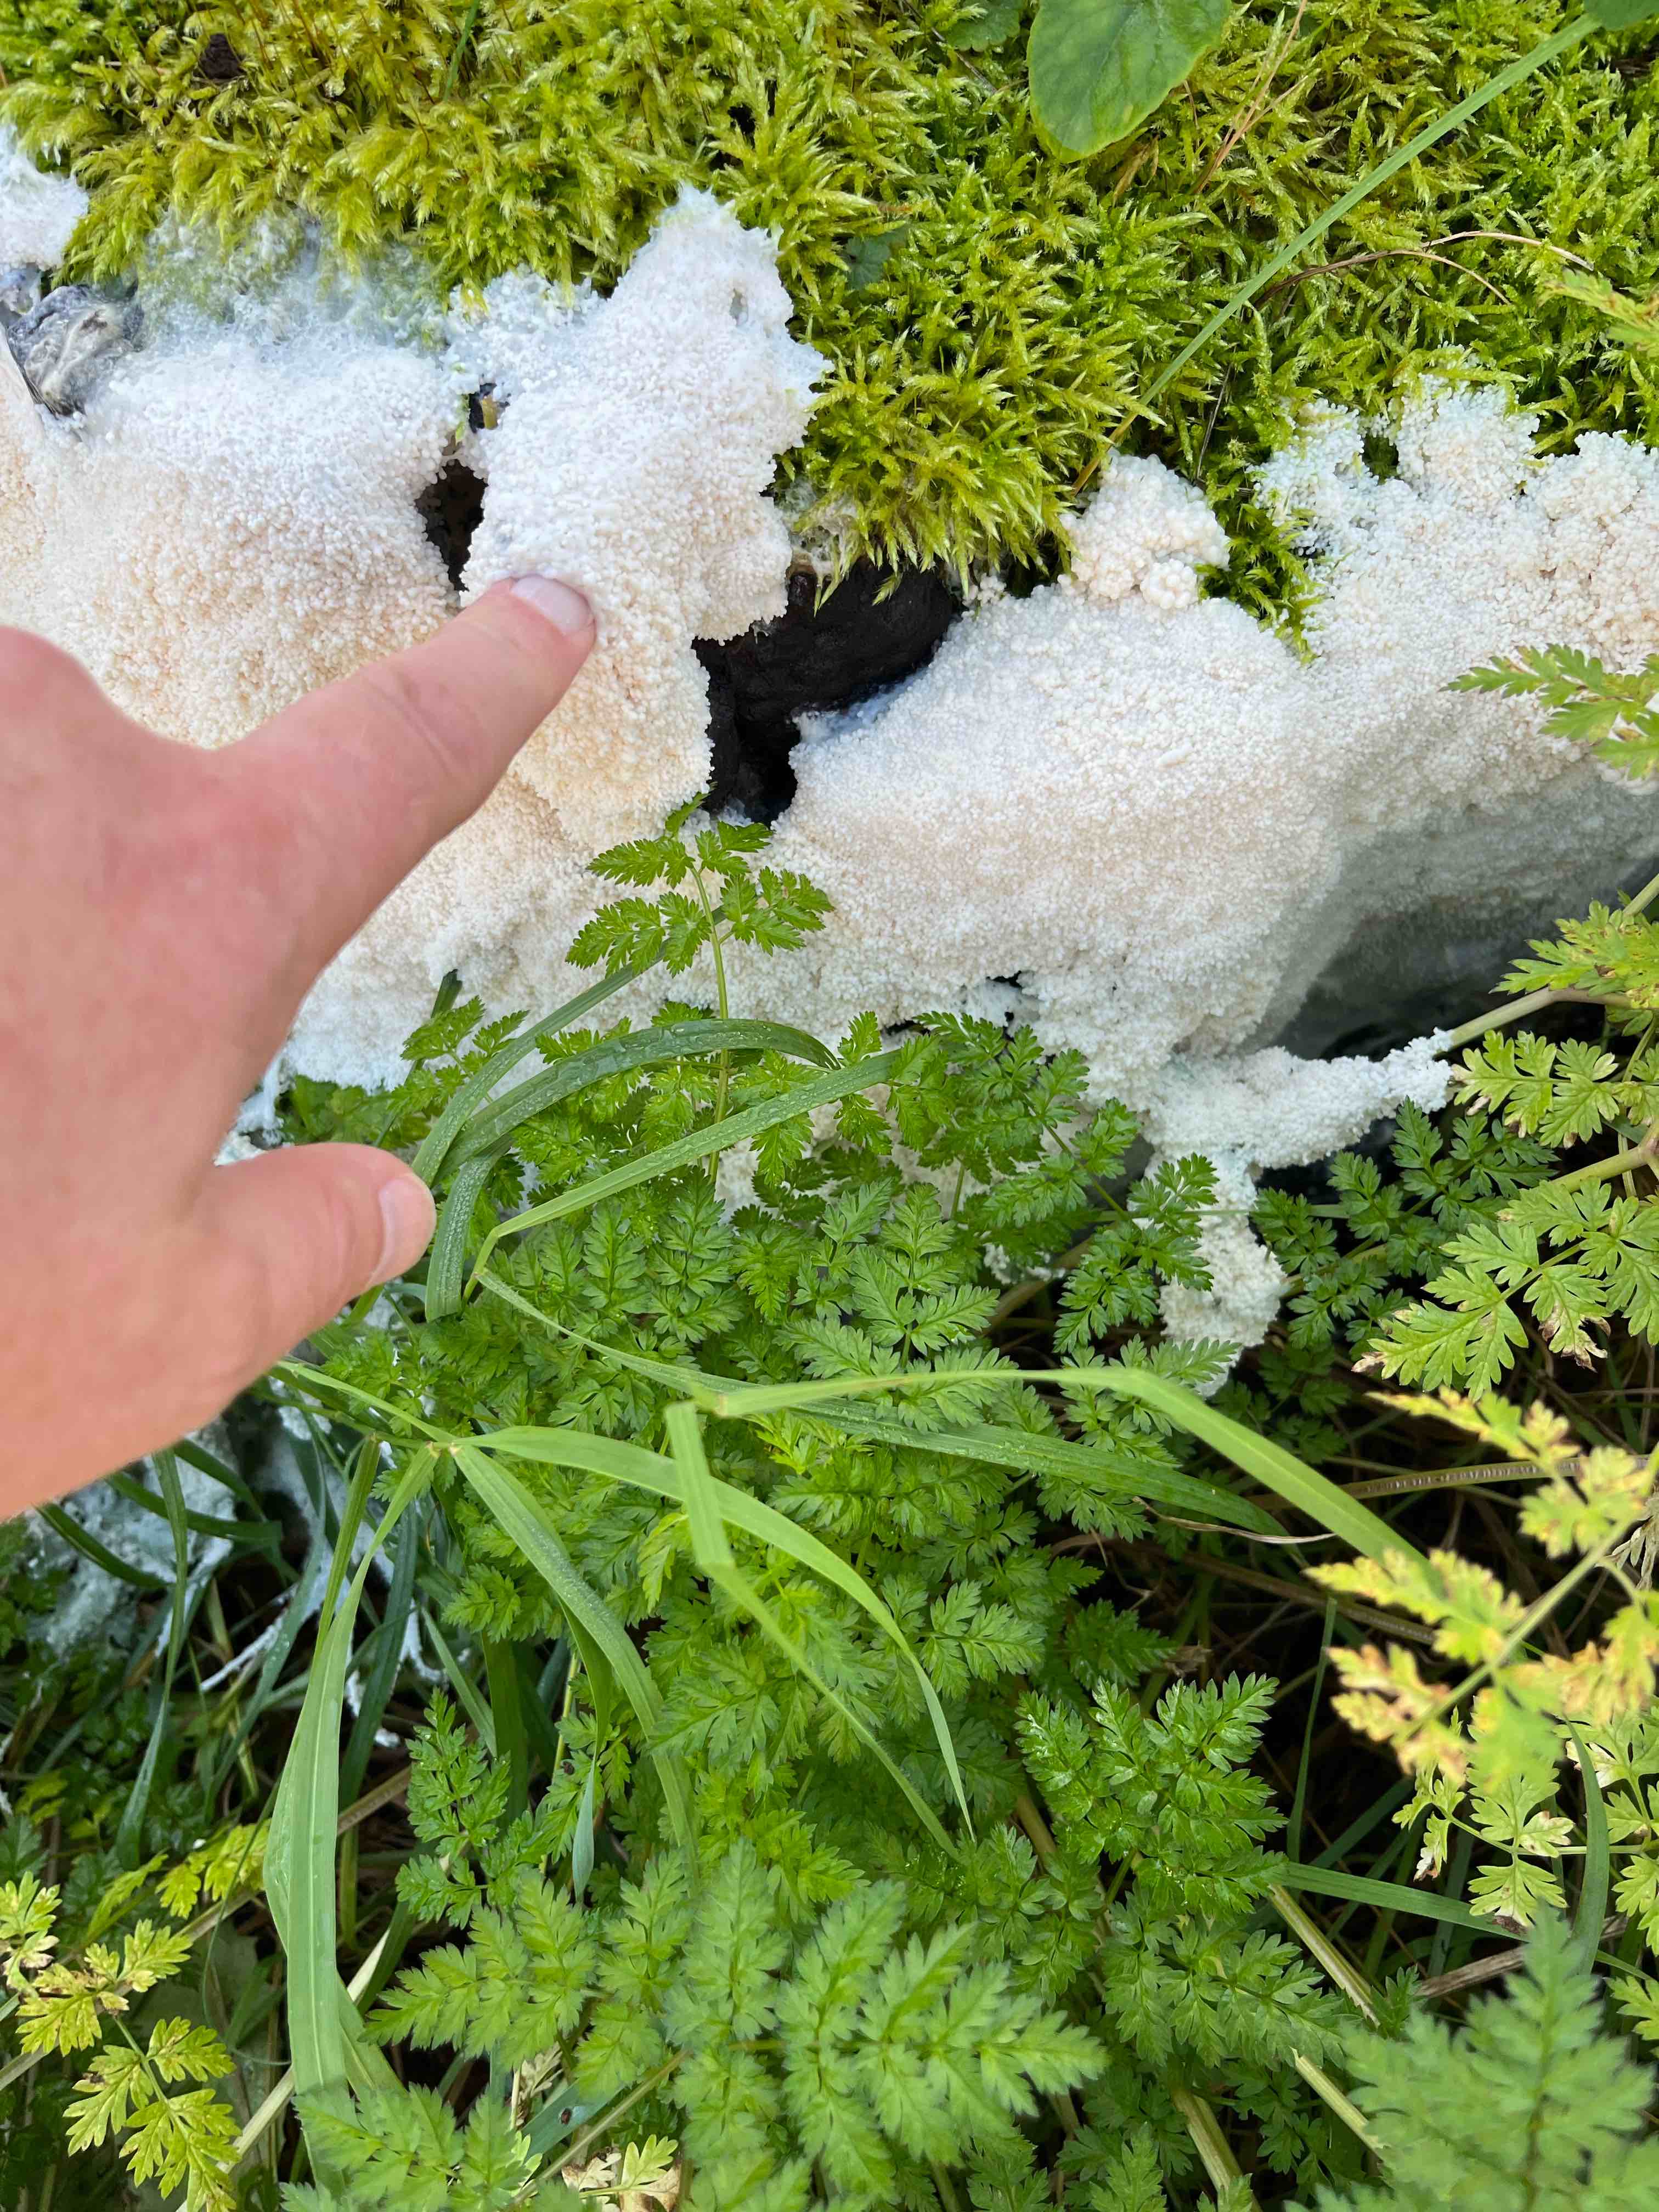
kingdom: Protozoa
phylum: Mycetozoa
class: Myxomycetes
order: Stemonitidales
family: Stemonitidaceae
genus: Brefeldia
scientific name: Brefeldia maxima
